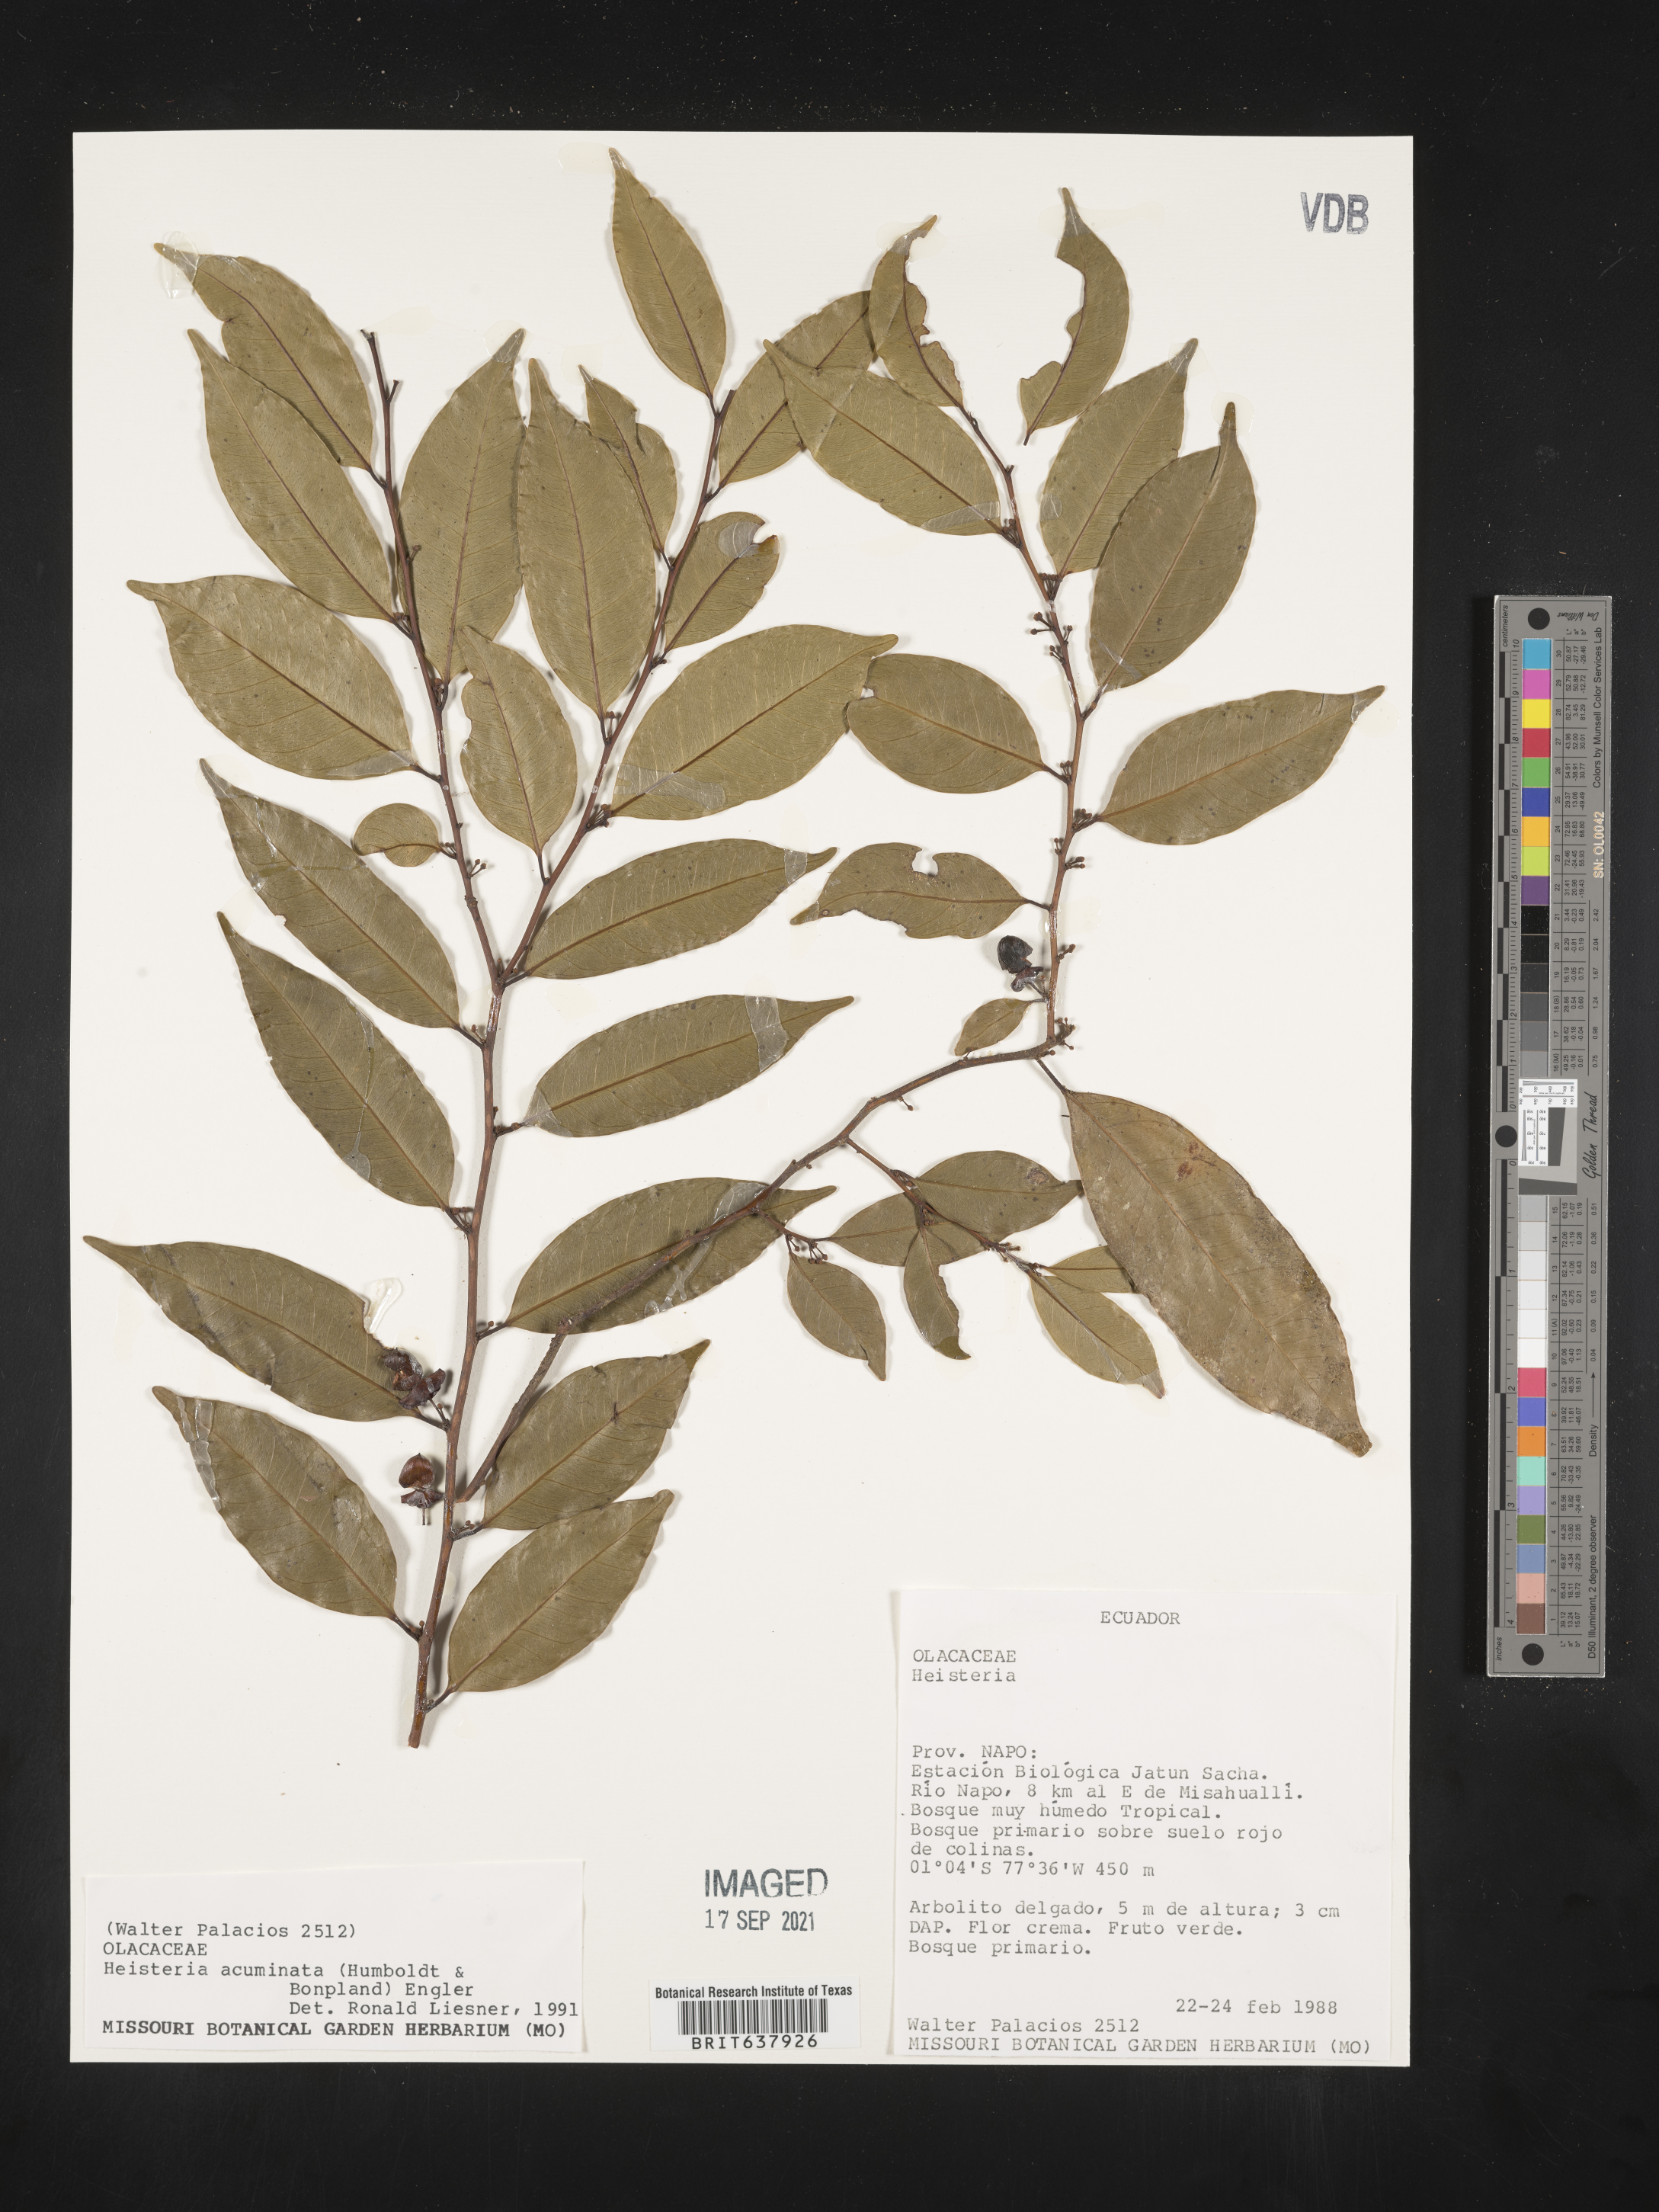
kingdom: Plantae
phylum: Tracheophyta
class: Magnoliopsida
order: Santalales
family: Erythropalaceae
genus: Heisteria
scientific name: Heisteria
